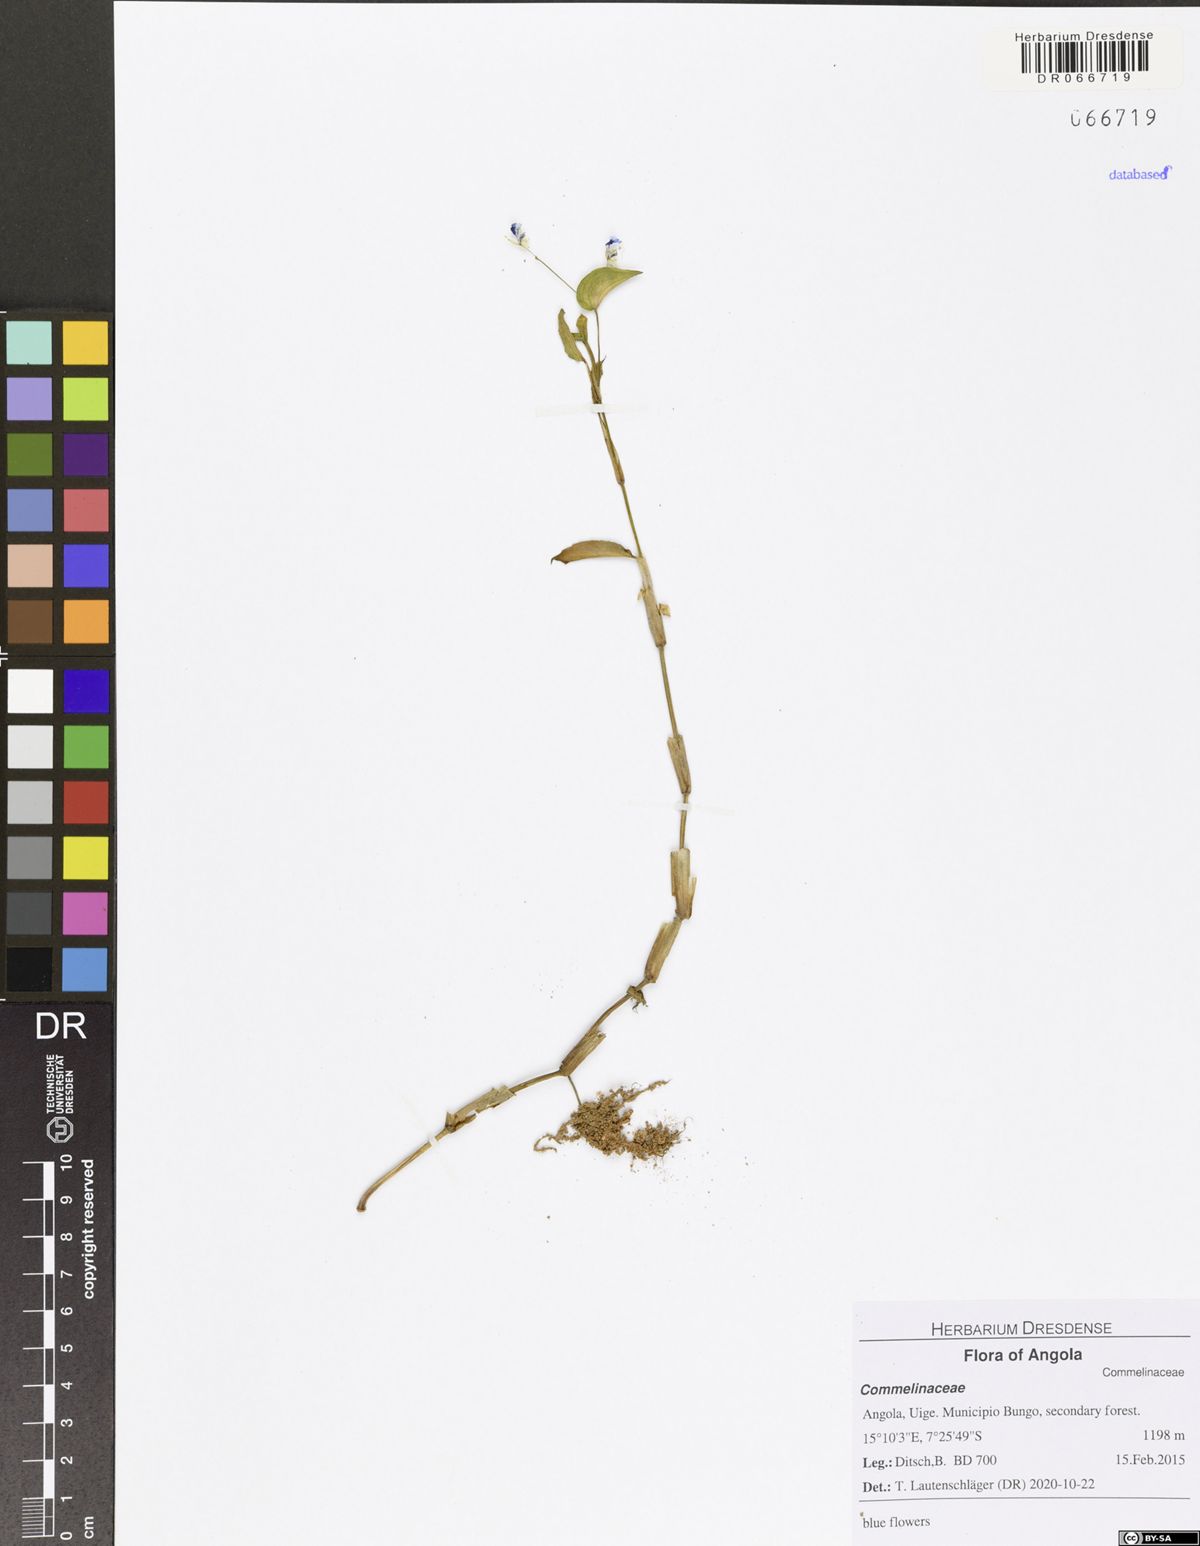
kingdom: Plantae
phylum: Tracheophyta
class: Liliopsida
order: Commelinales
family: Commelinaceae
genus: Commelina
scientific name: Commelina diffusa
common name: Climbing dayflower
